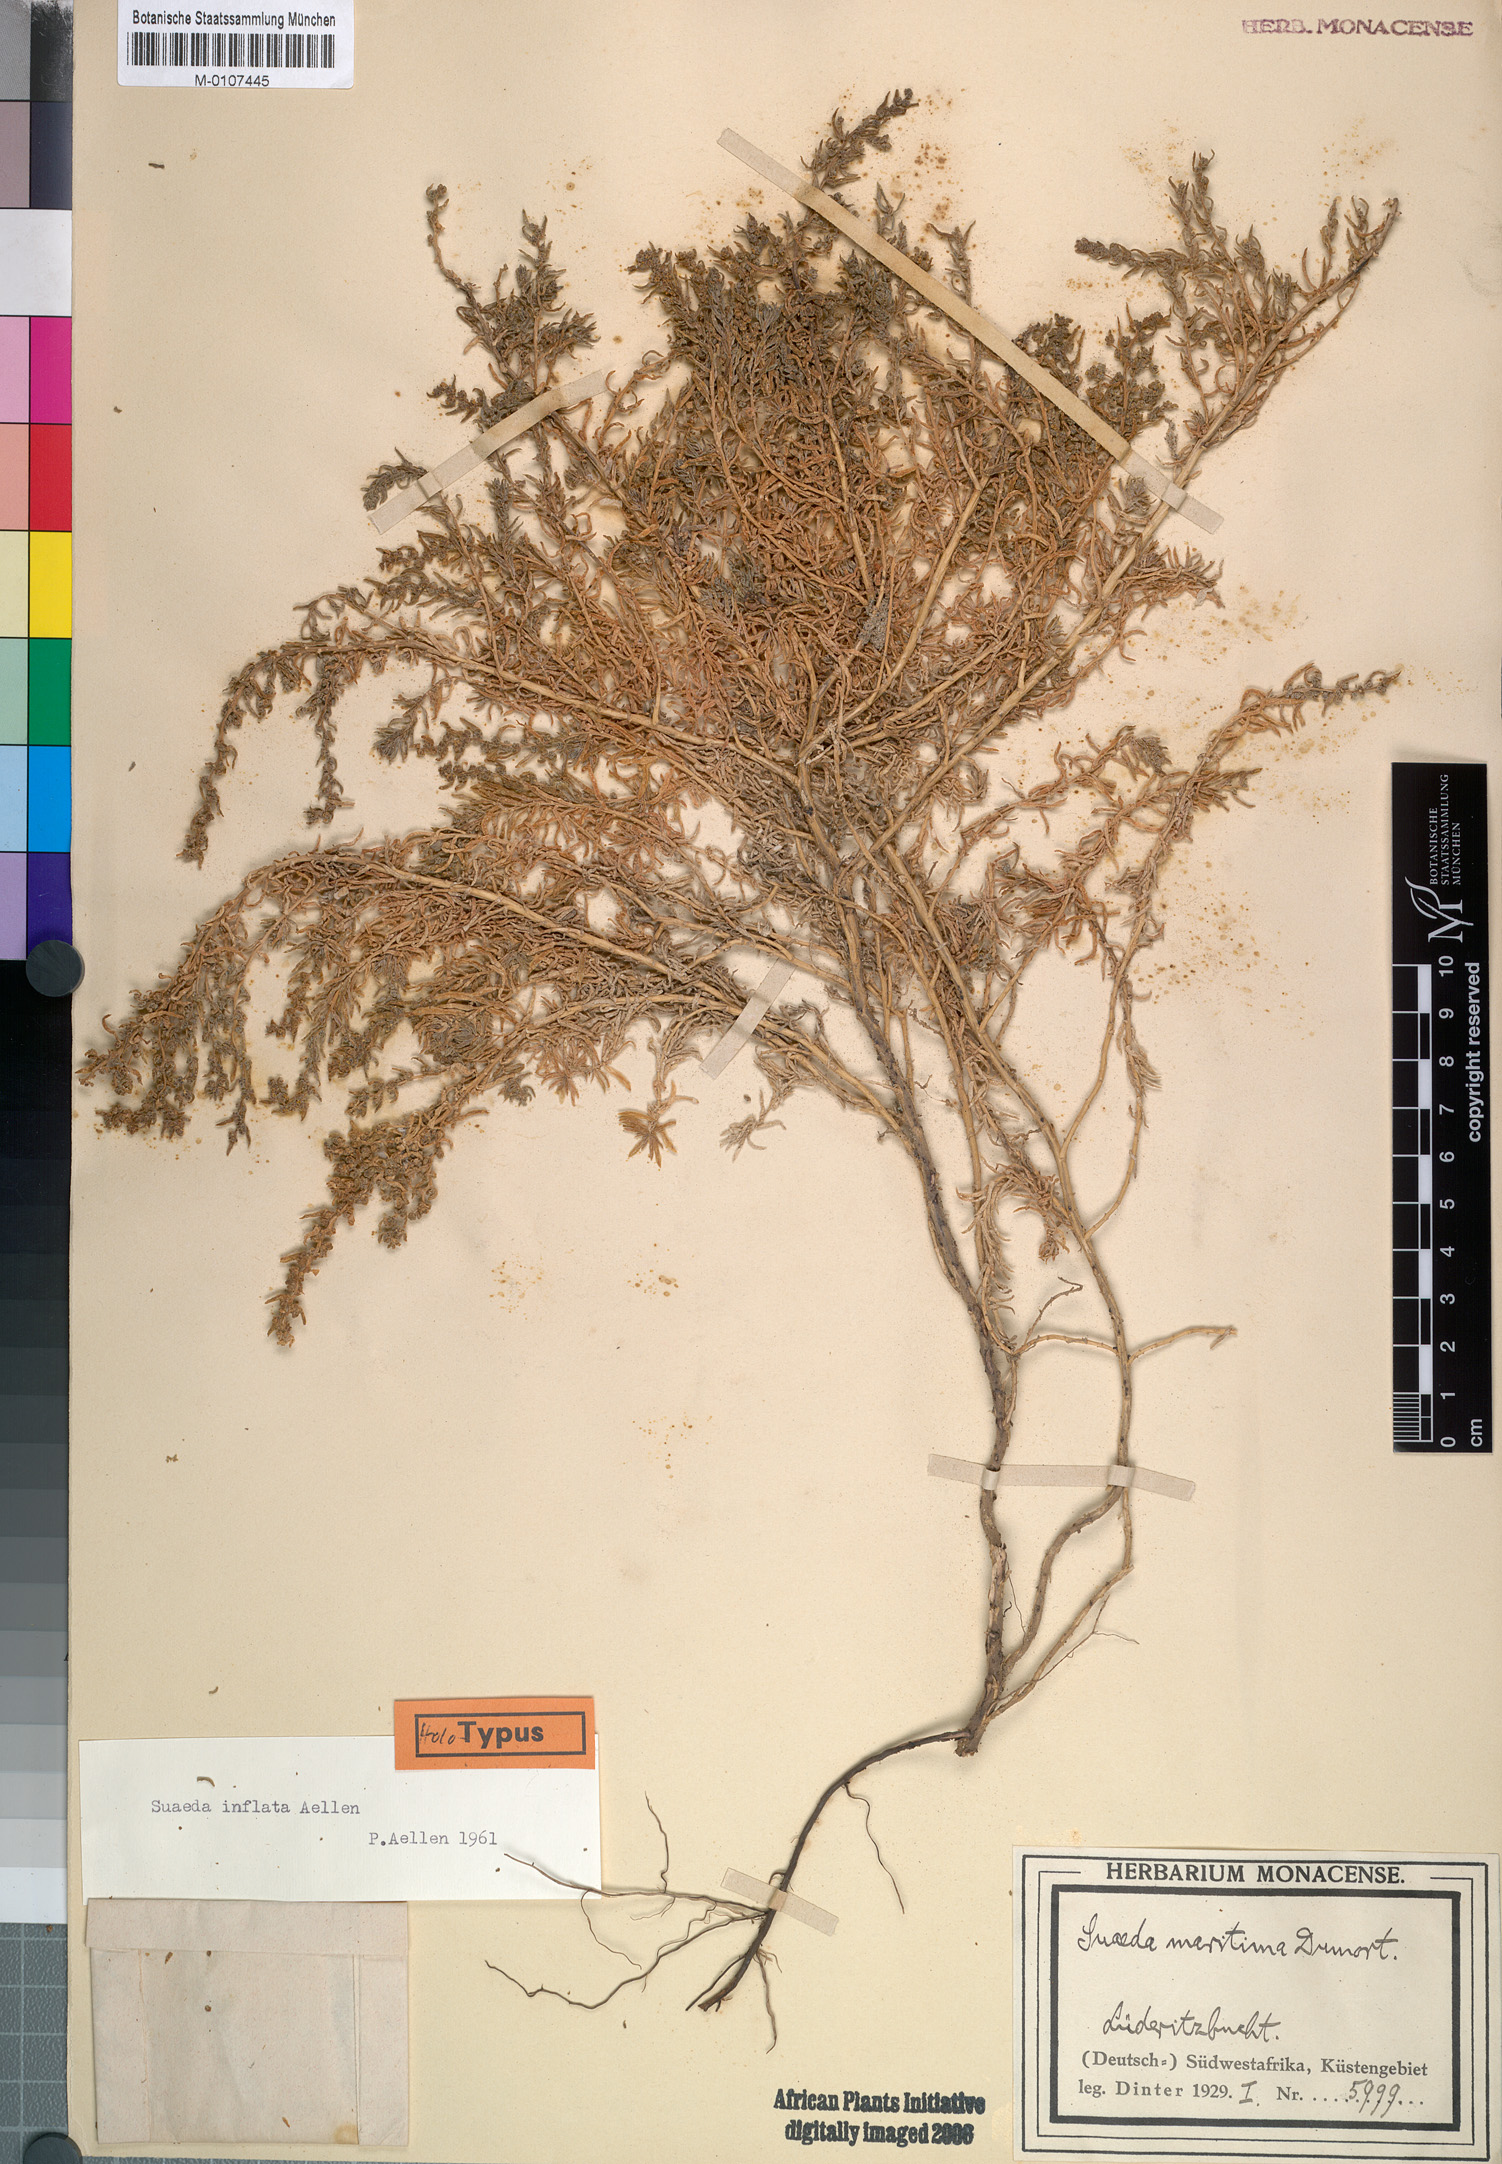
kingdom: Plantae
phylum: Tracheophyta
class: Magnoliopsida
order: Caryophyllales
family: Amaranthaceae
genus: Suaeda
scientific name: Suaeda inflata
